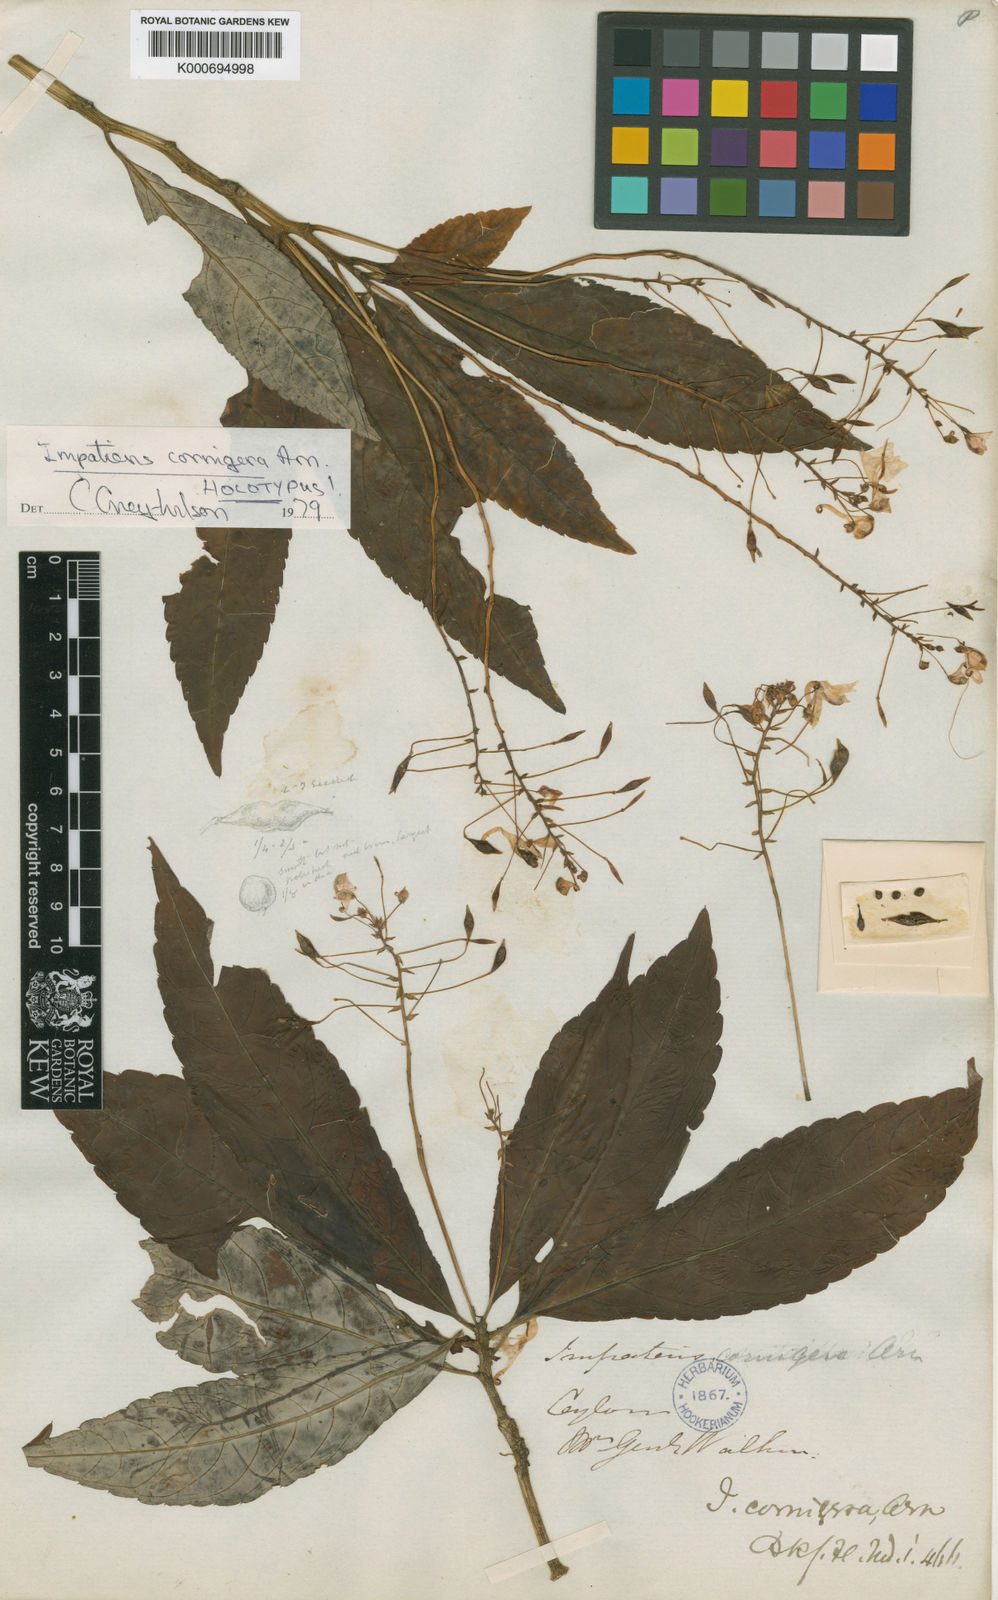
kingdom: Plantae
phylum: Tracheophyta
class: Magnoliopsida
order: Ericales
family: Balsaminaceae
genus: Impatiens
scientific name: Impatiens cornigera
